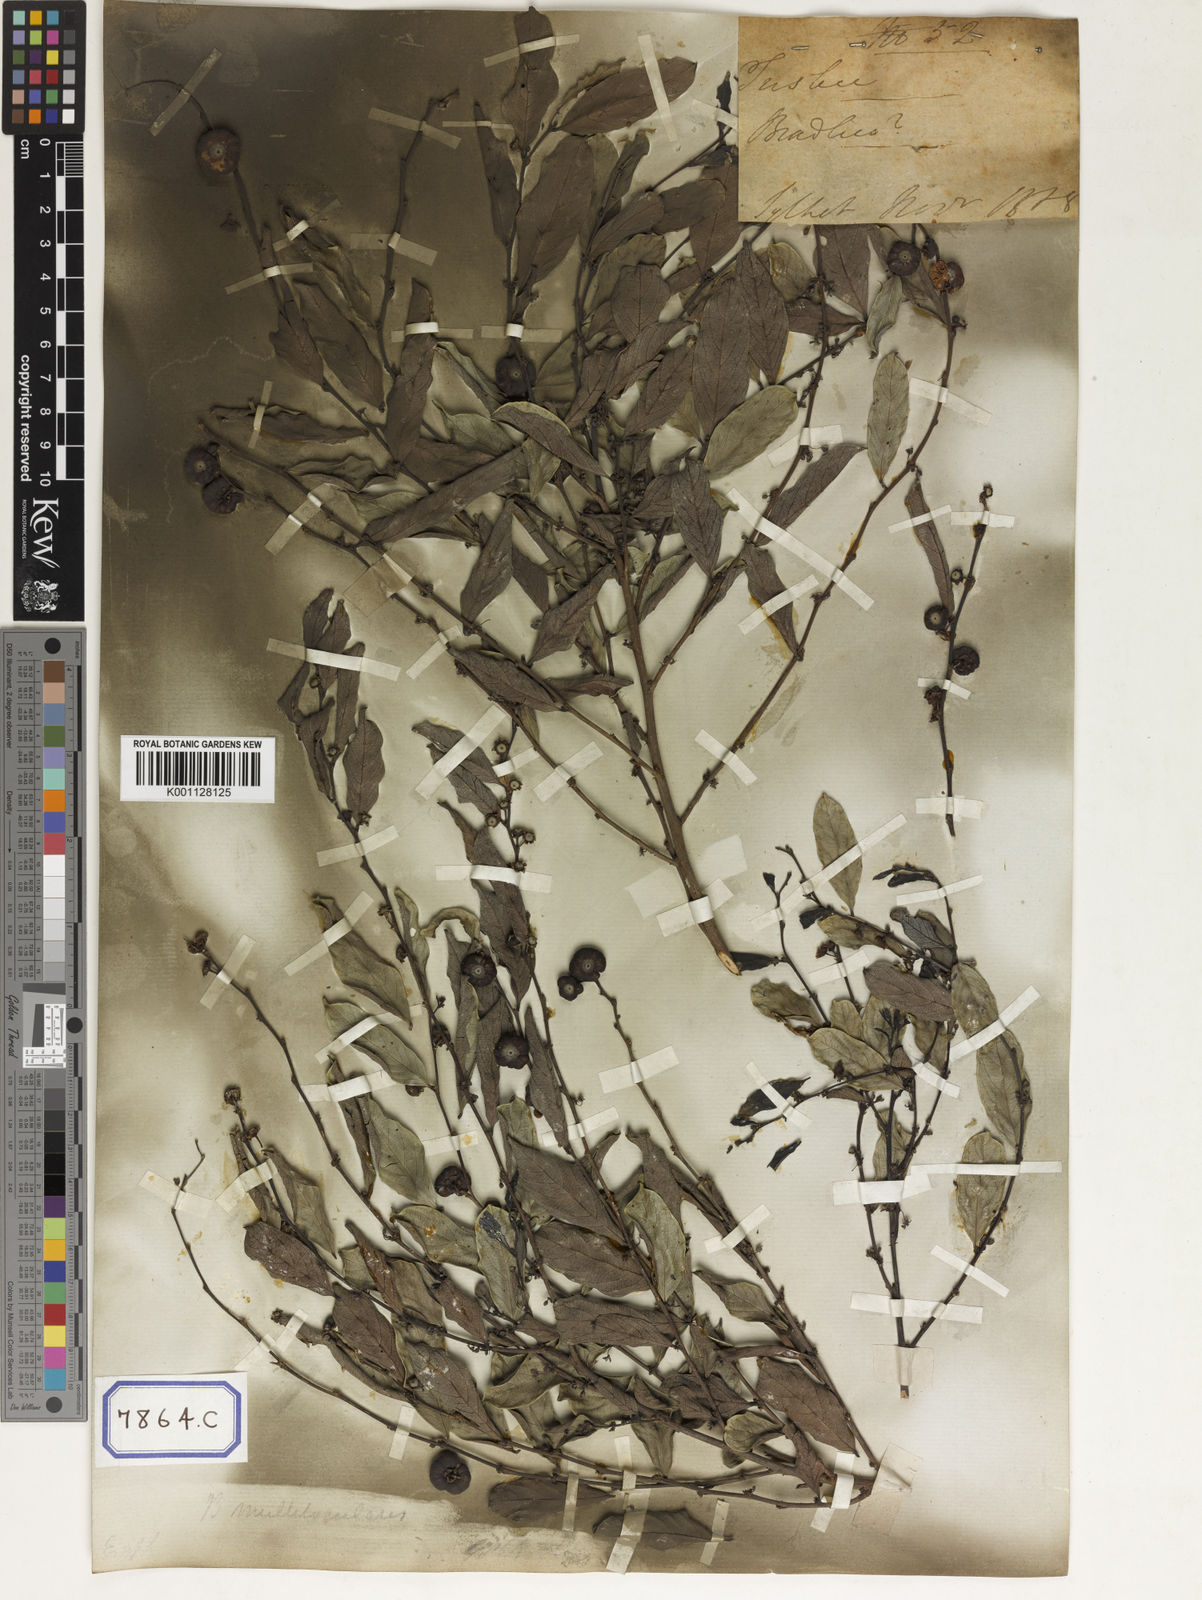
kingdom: Plantae
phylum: Tracheophyta
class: Magnoliopsida
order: Malpighiales
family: Euphorbiaceae
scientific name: Euphorbiaceae
